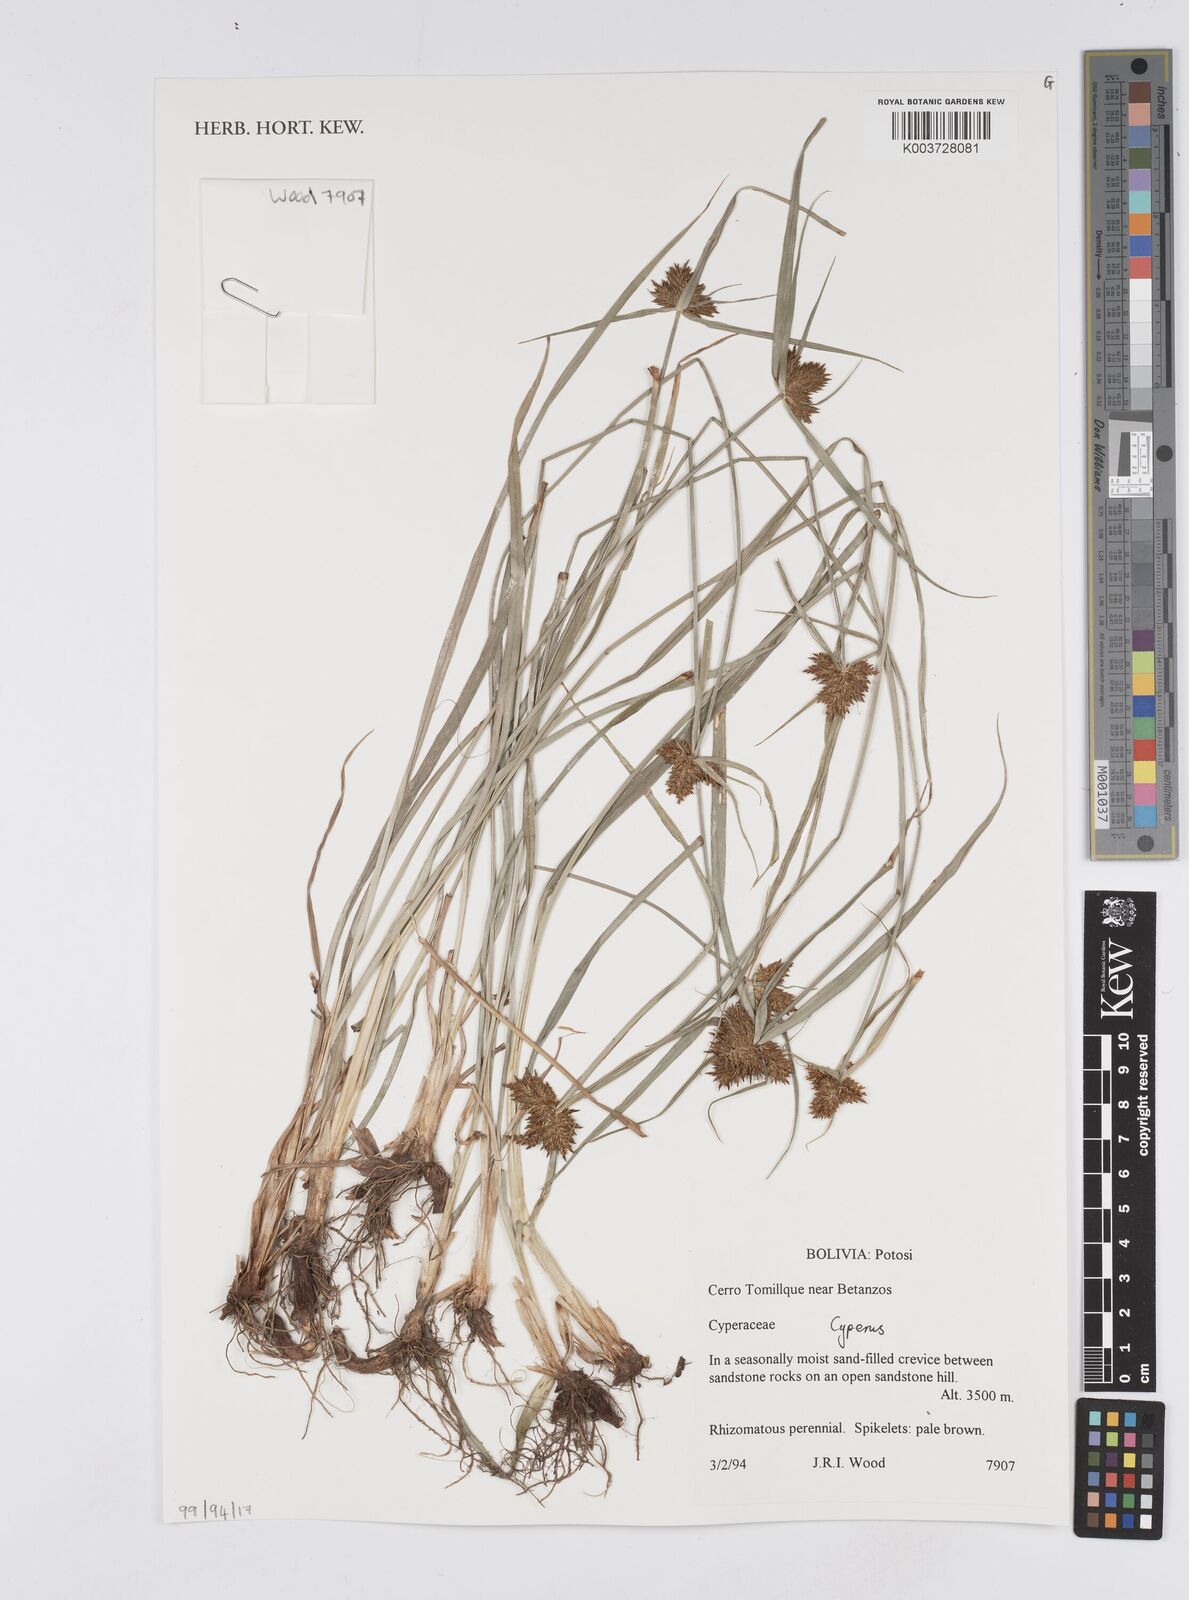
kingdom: Plantae
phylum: Tracheophyta
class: Liliopsida
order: Poales
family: Cyperaceae
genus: Cyperus
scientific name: Cyperus
